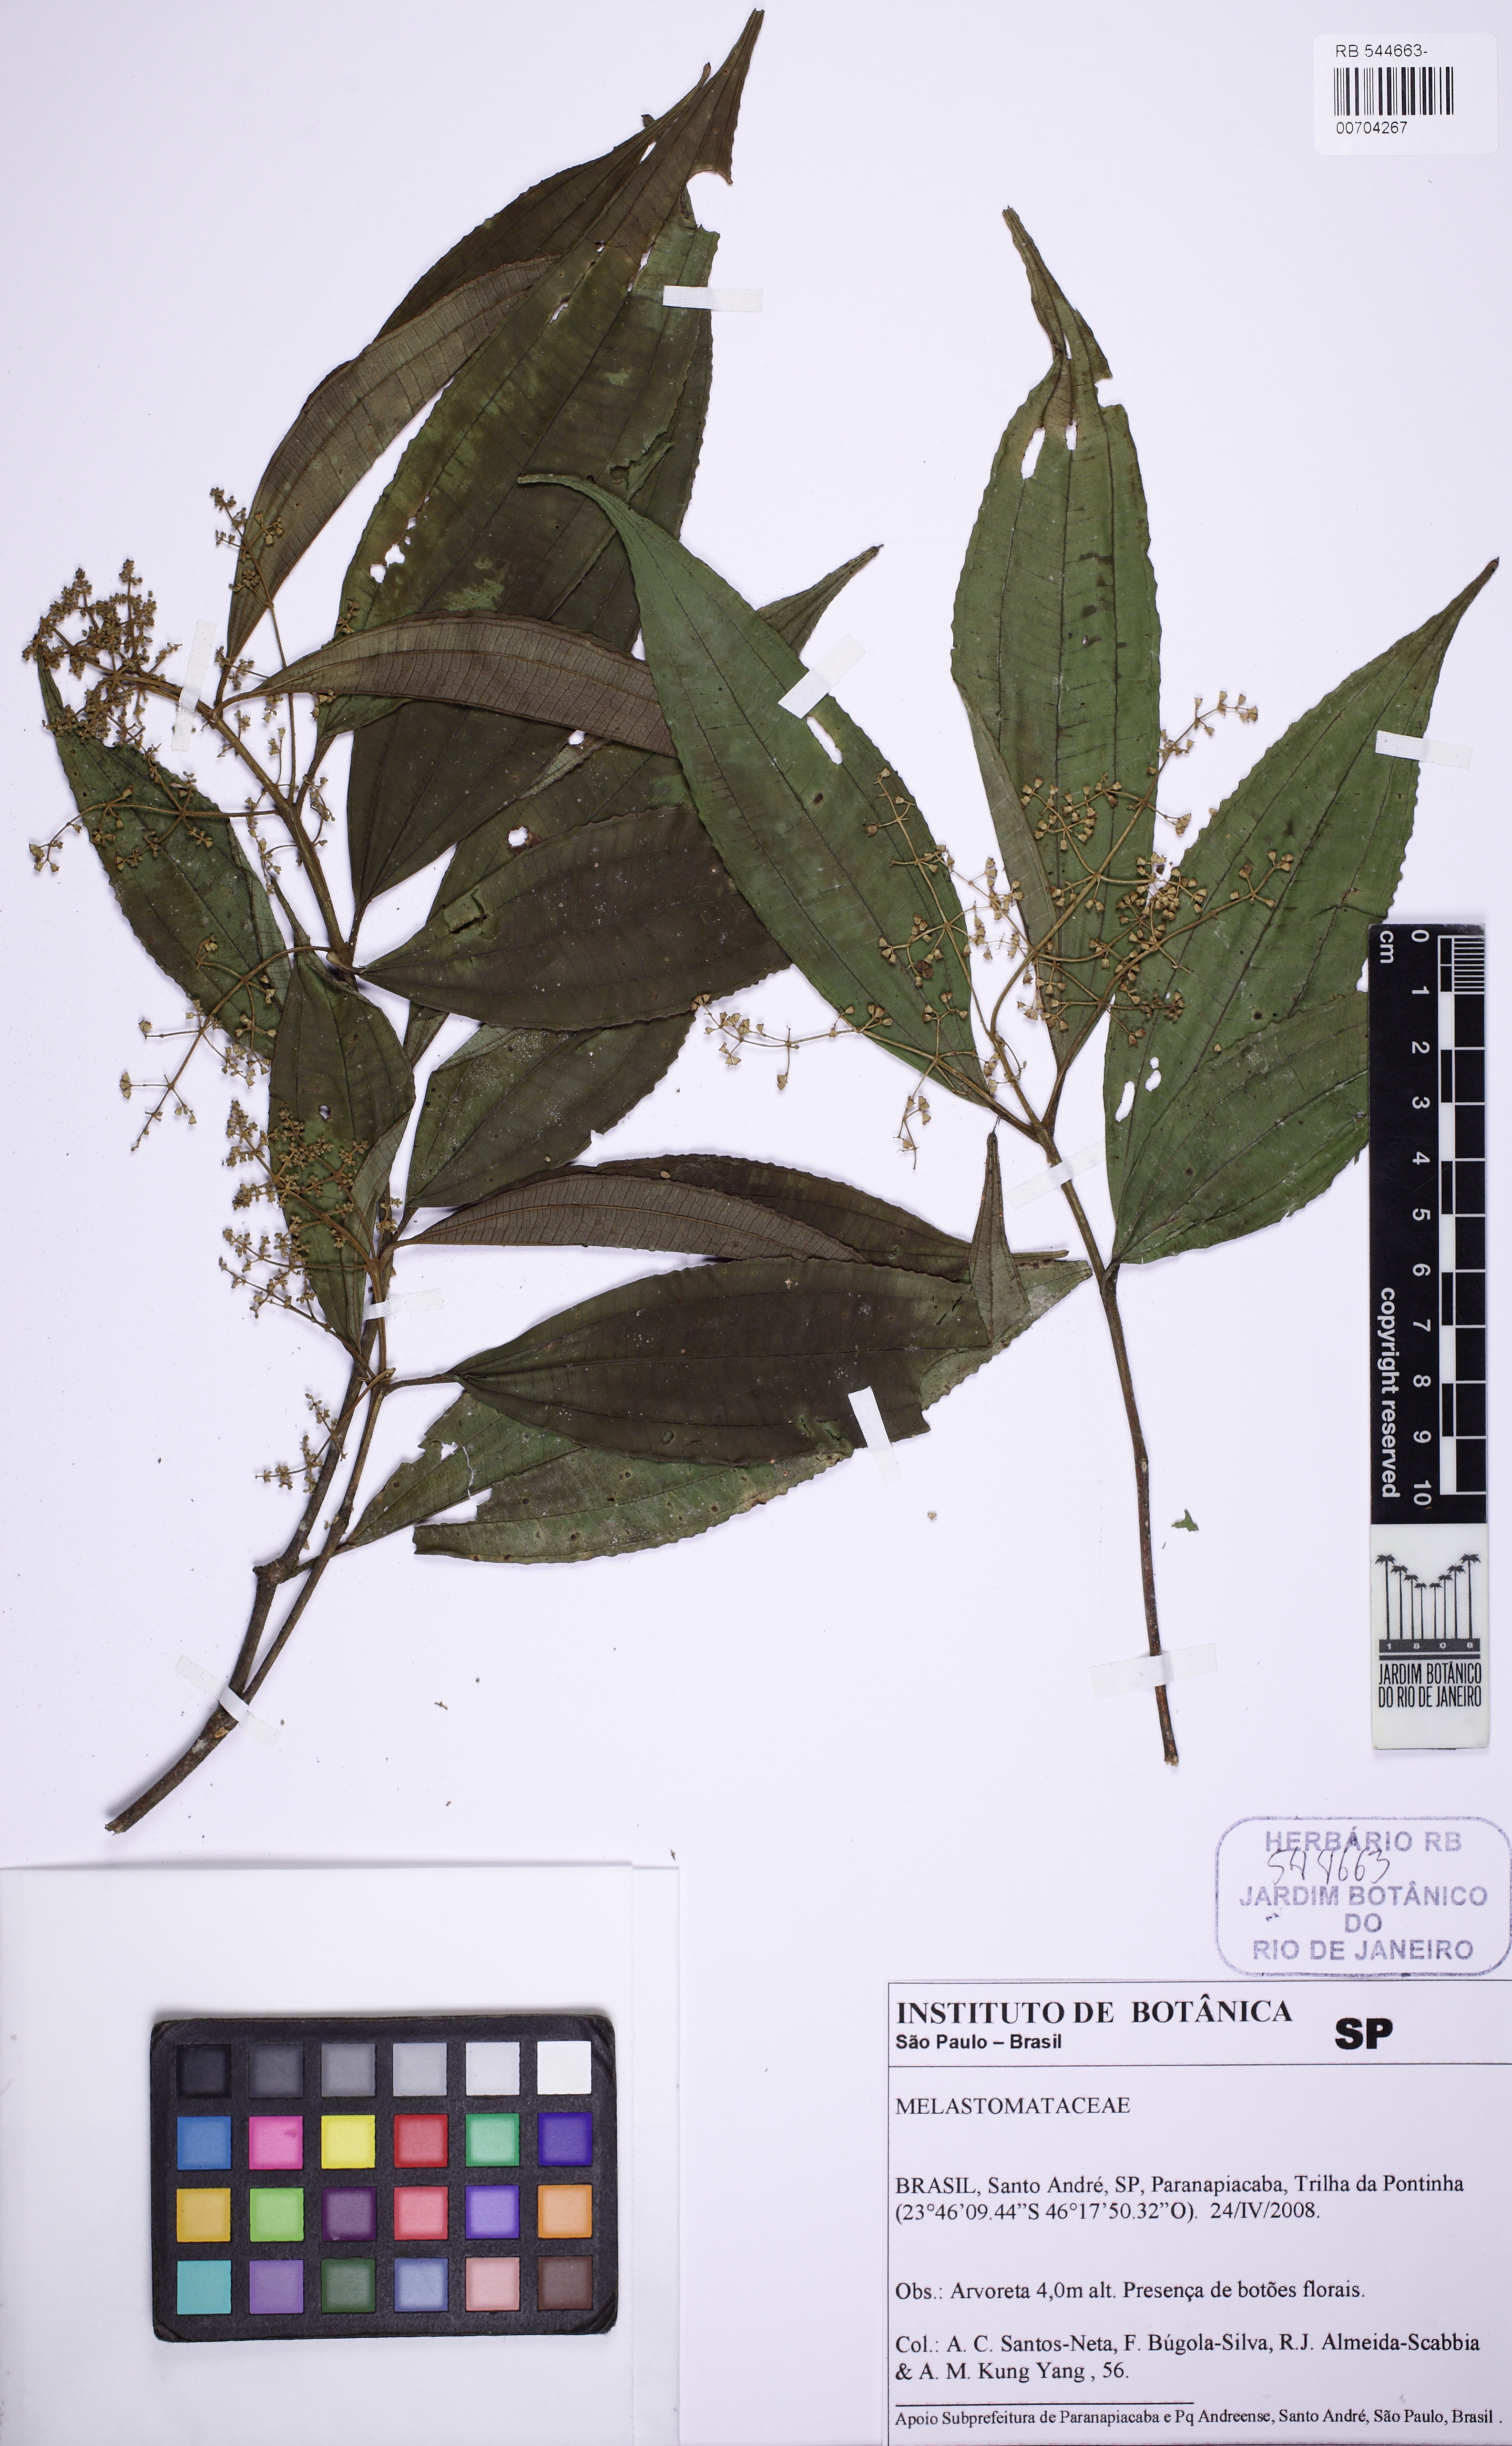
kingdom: Plantae
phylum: Tracheophyta
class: Magnoliopsida
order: Myrtales
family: Melastomataceae
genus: Miconia
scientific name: Miconia latecrenata
